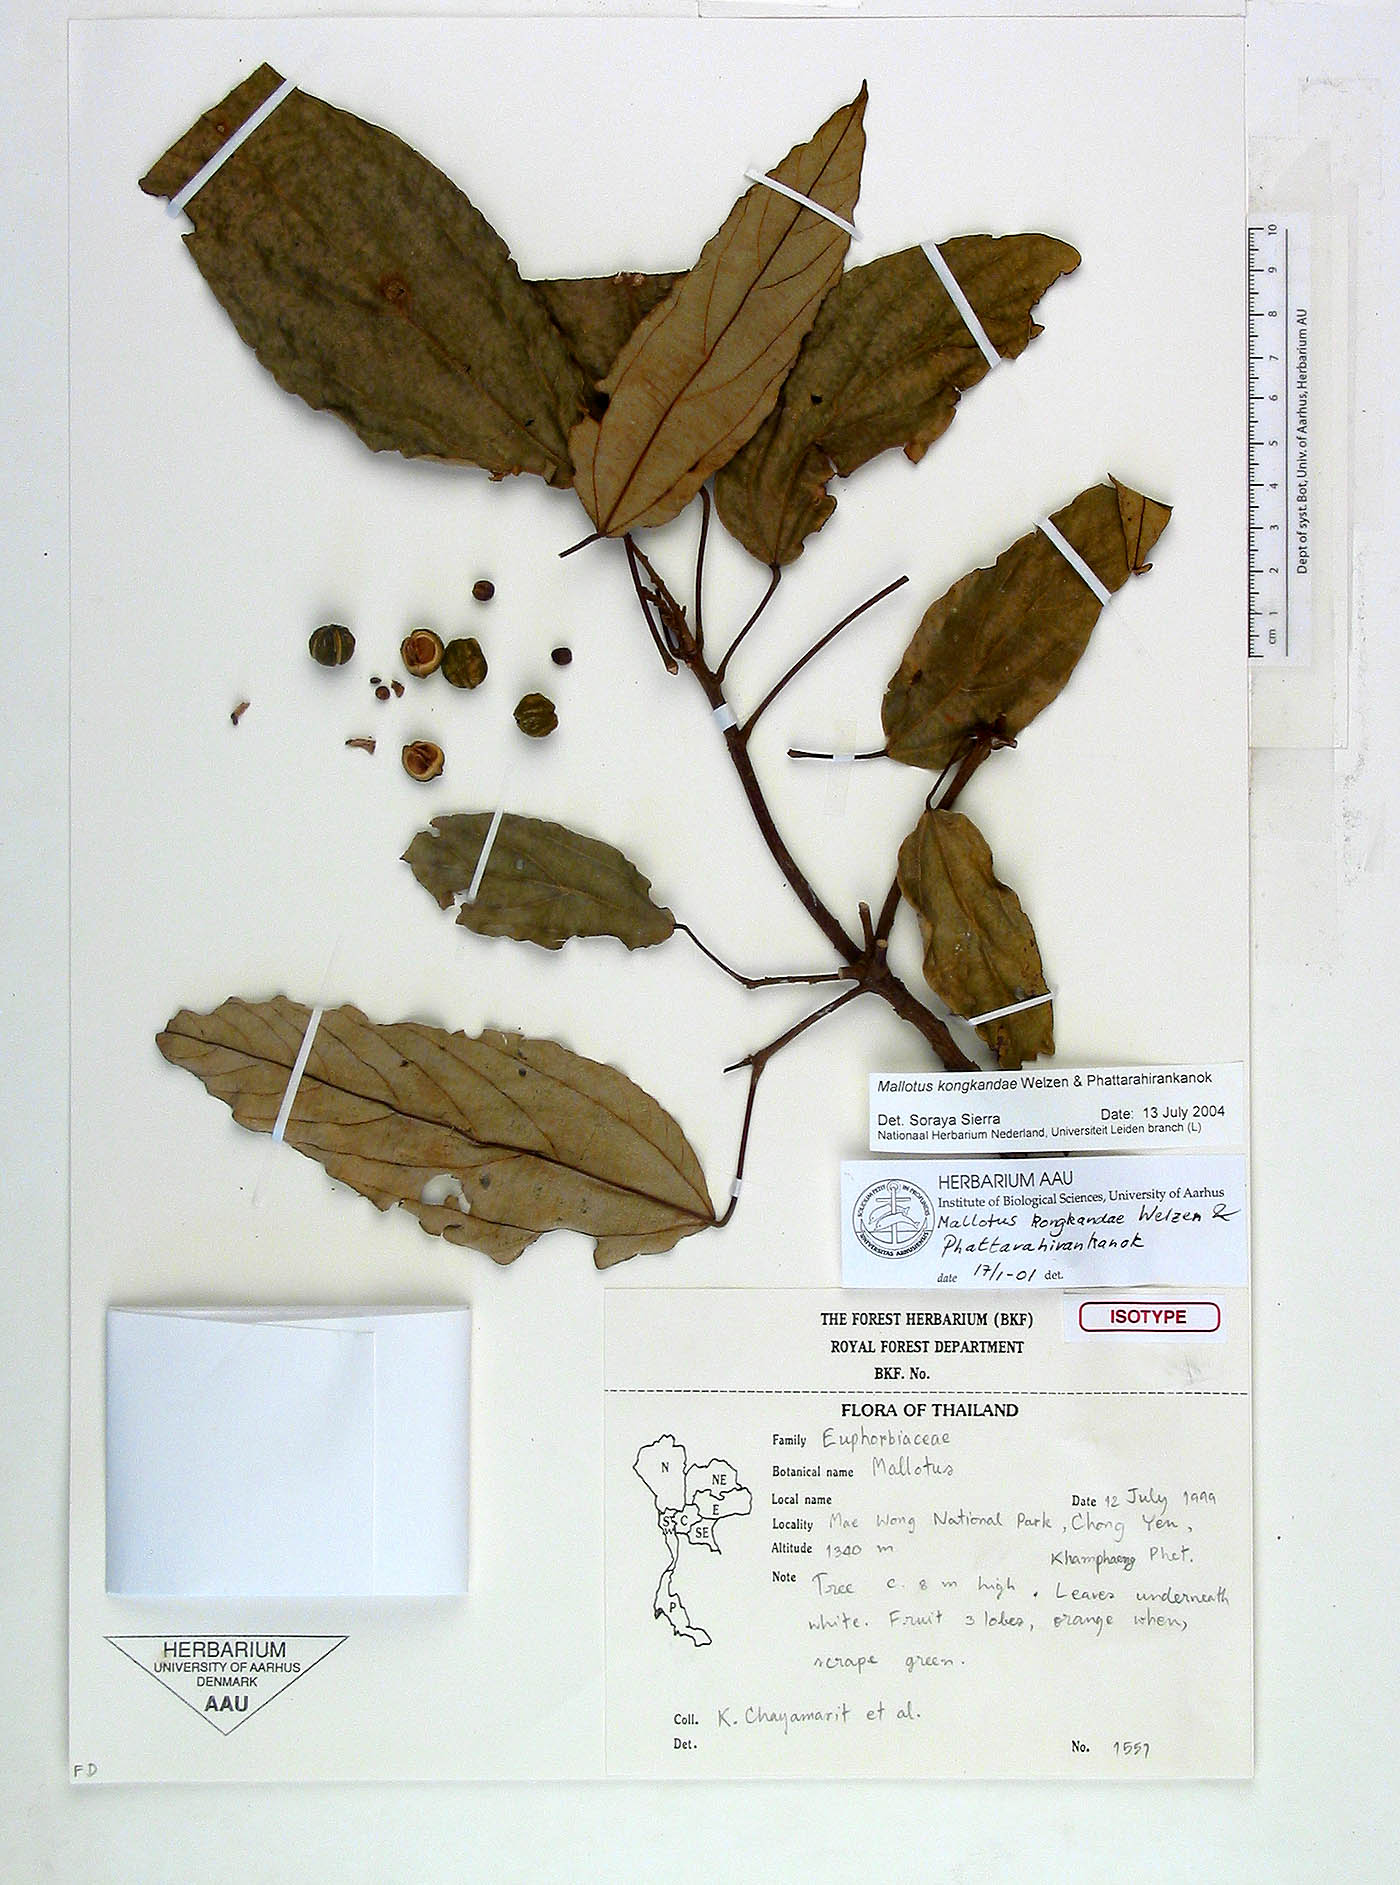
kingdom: Plantae
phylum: Tracheophyta
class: Magnoliopsida
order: Malpighiales
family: Euphorbiaceae
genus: Mallotus
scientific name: Mallotus kongkandae
